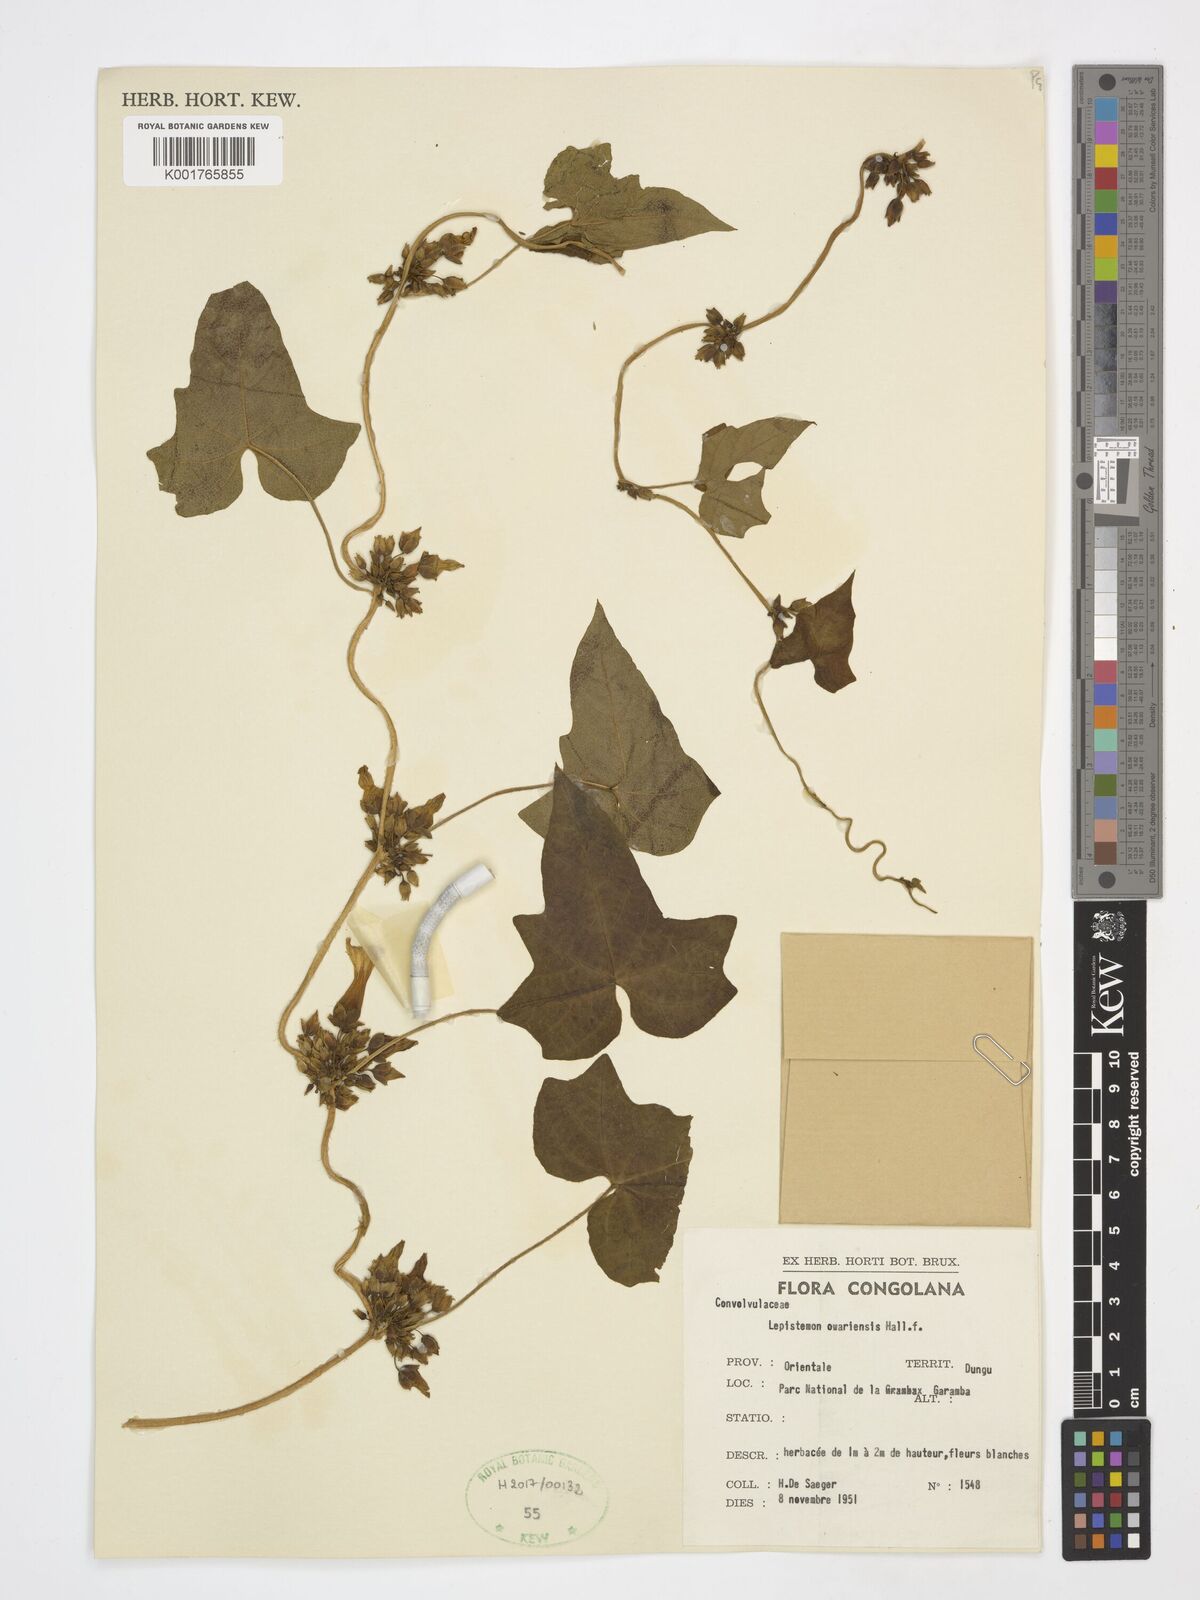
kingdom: Plantae
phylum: Tracheophyta
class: Magnoliopsida
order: Solanales
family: Convolvulaceae
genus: Lepistemon
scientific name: Lepistemon owariensis
